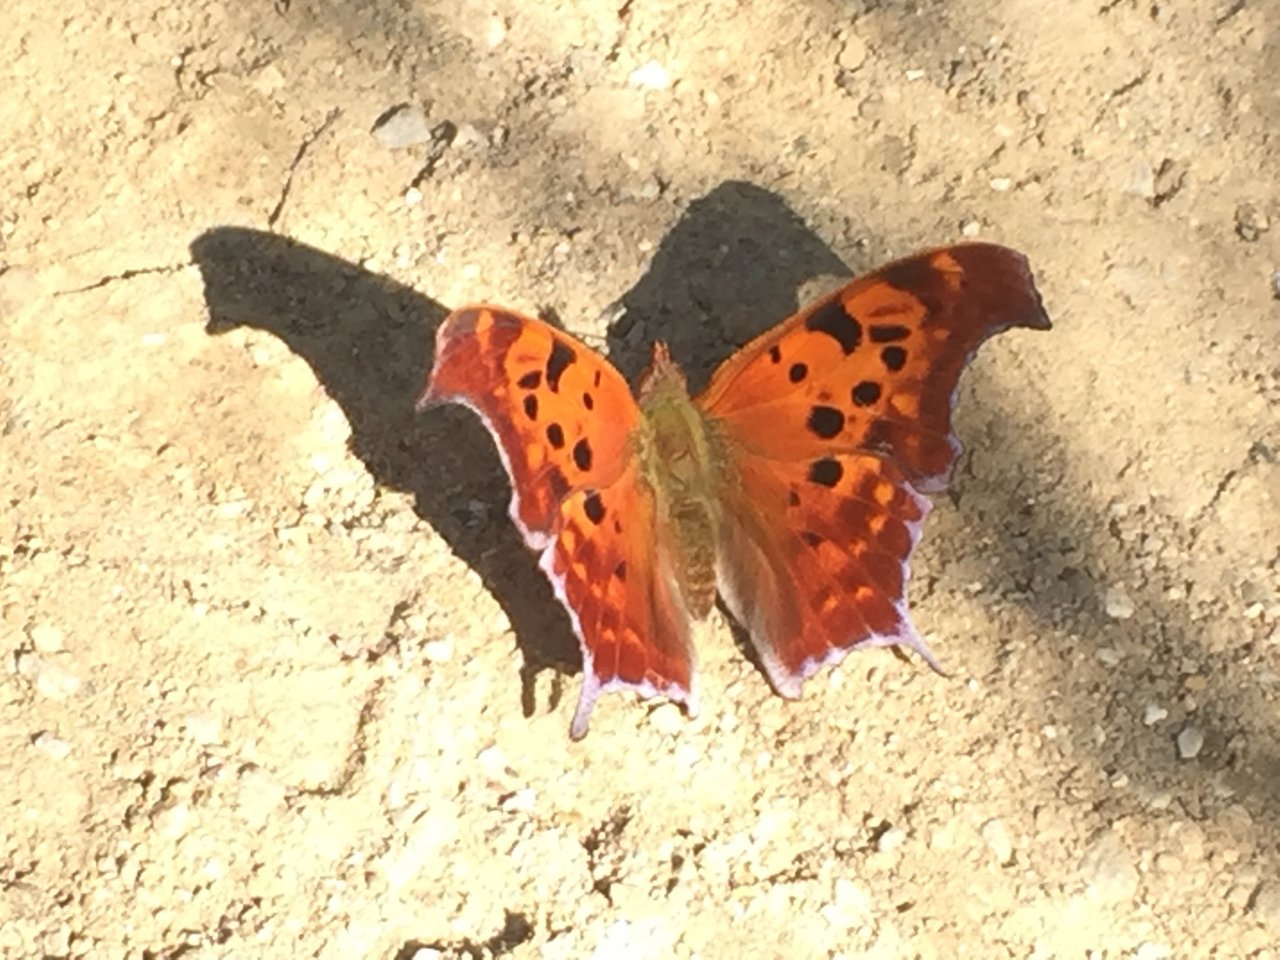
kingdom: Animalia
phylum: Arthropoda
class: Insecta
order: Lepidoptera
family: Nymphalidae
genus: Polygonia
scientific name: Polygonia interrogationis
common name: Question Mark
